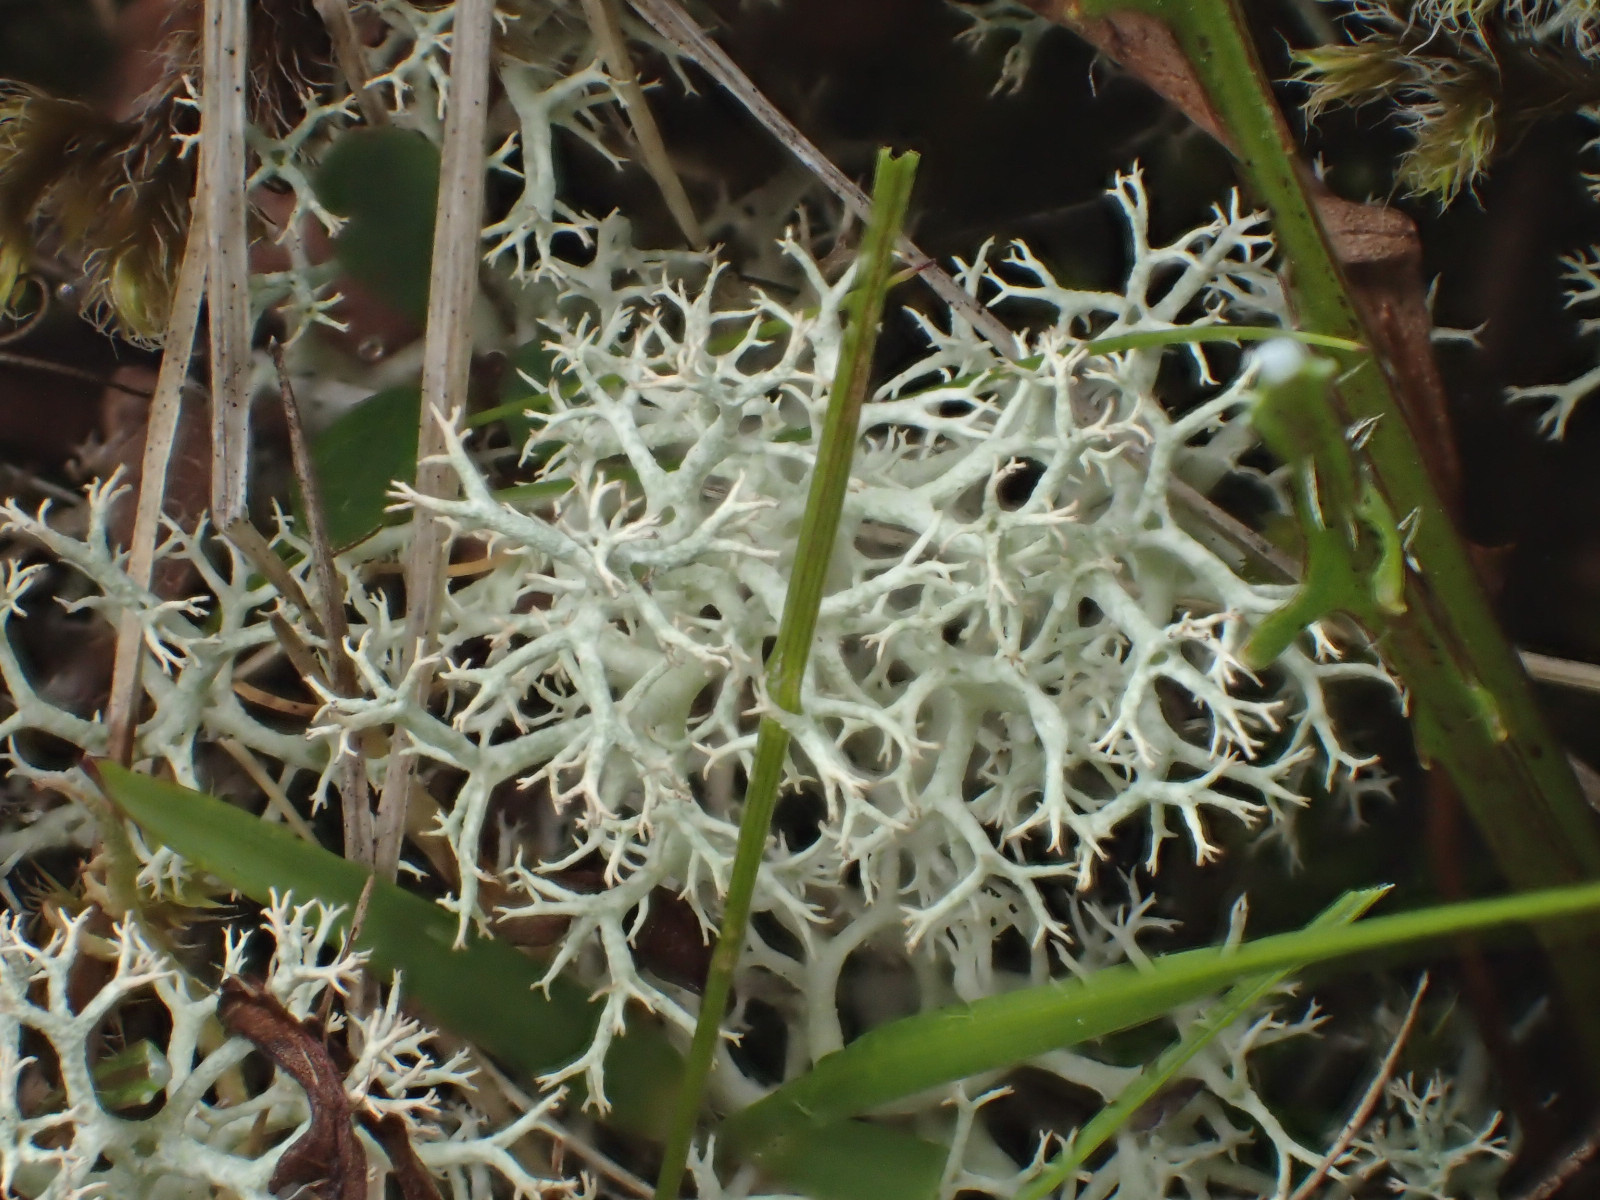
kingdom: Fungi
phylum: Ascomycota
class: Lecanoromycetes
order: Lecanorales
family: Cladoniaceae
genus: Cladonia
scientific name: Cladonia portentosa
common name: hede-rensdyrlav
